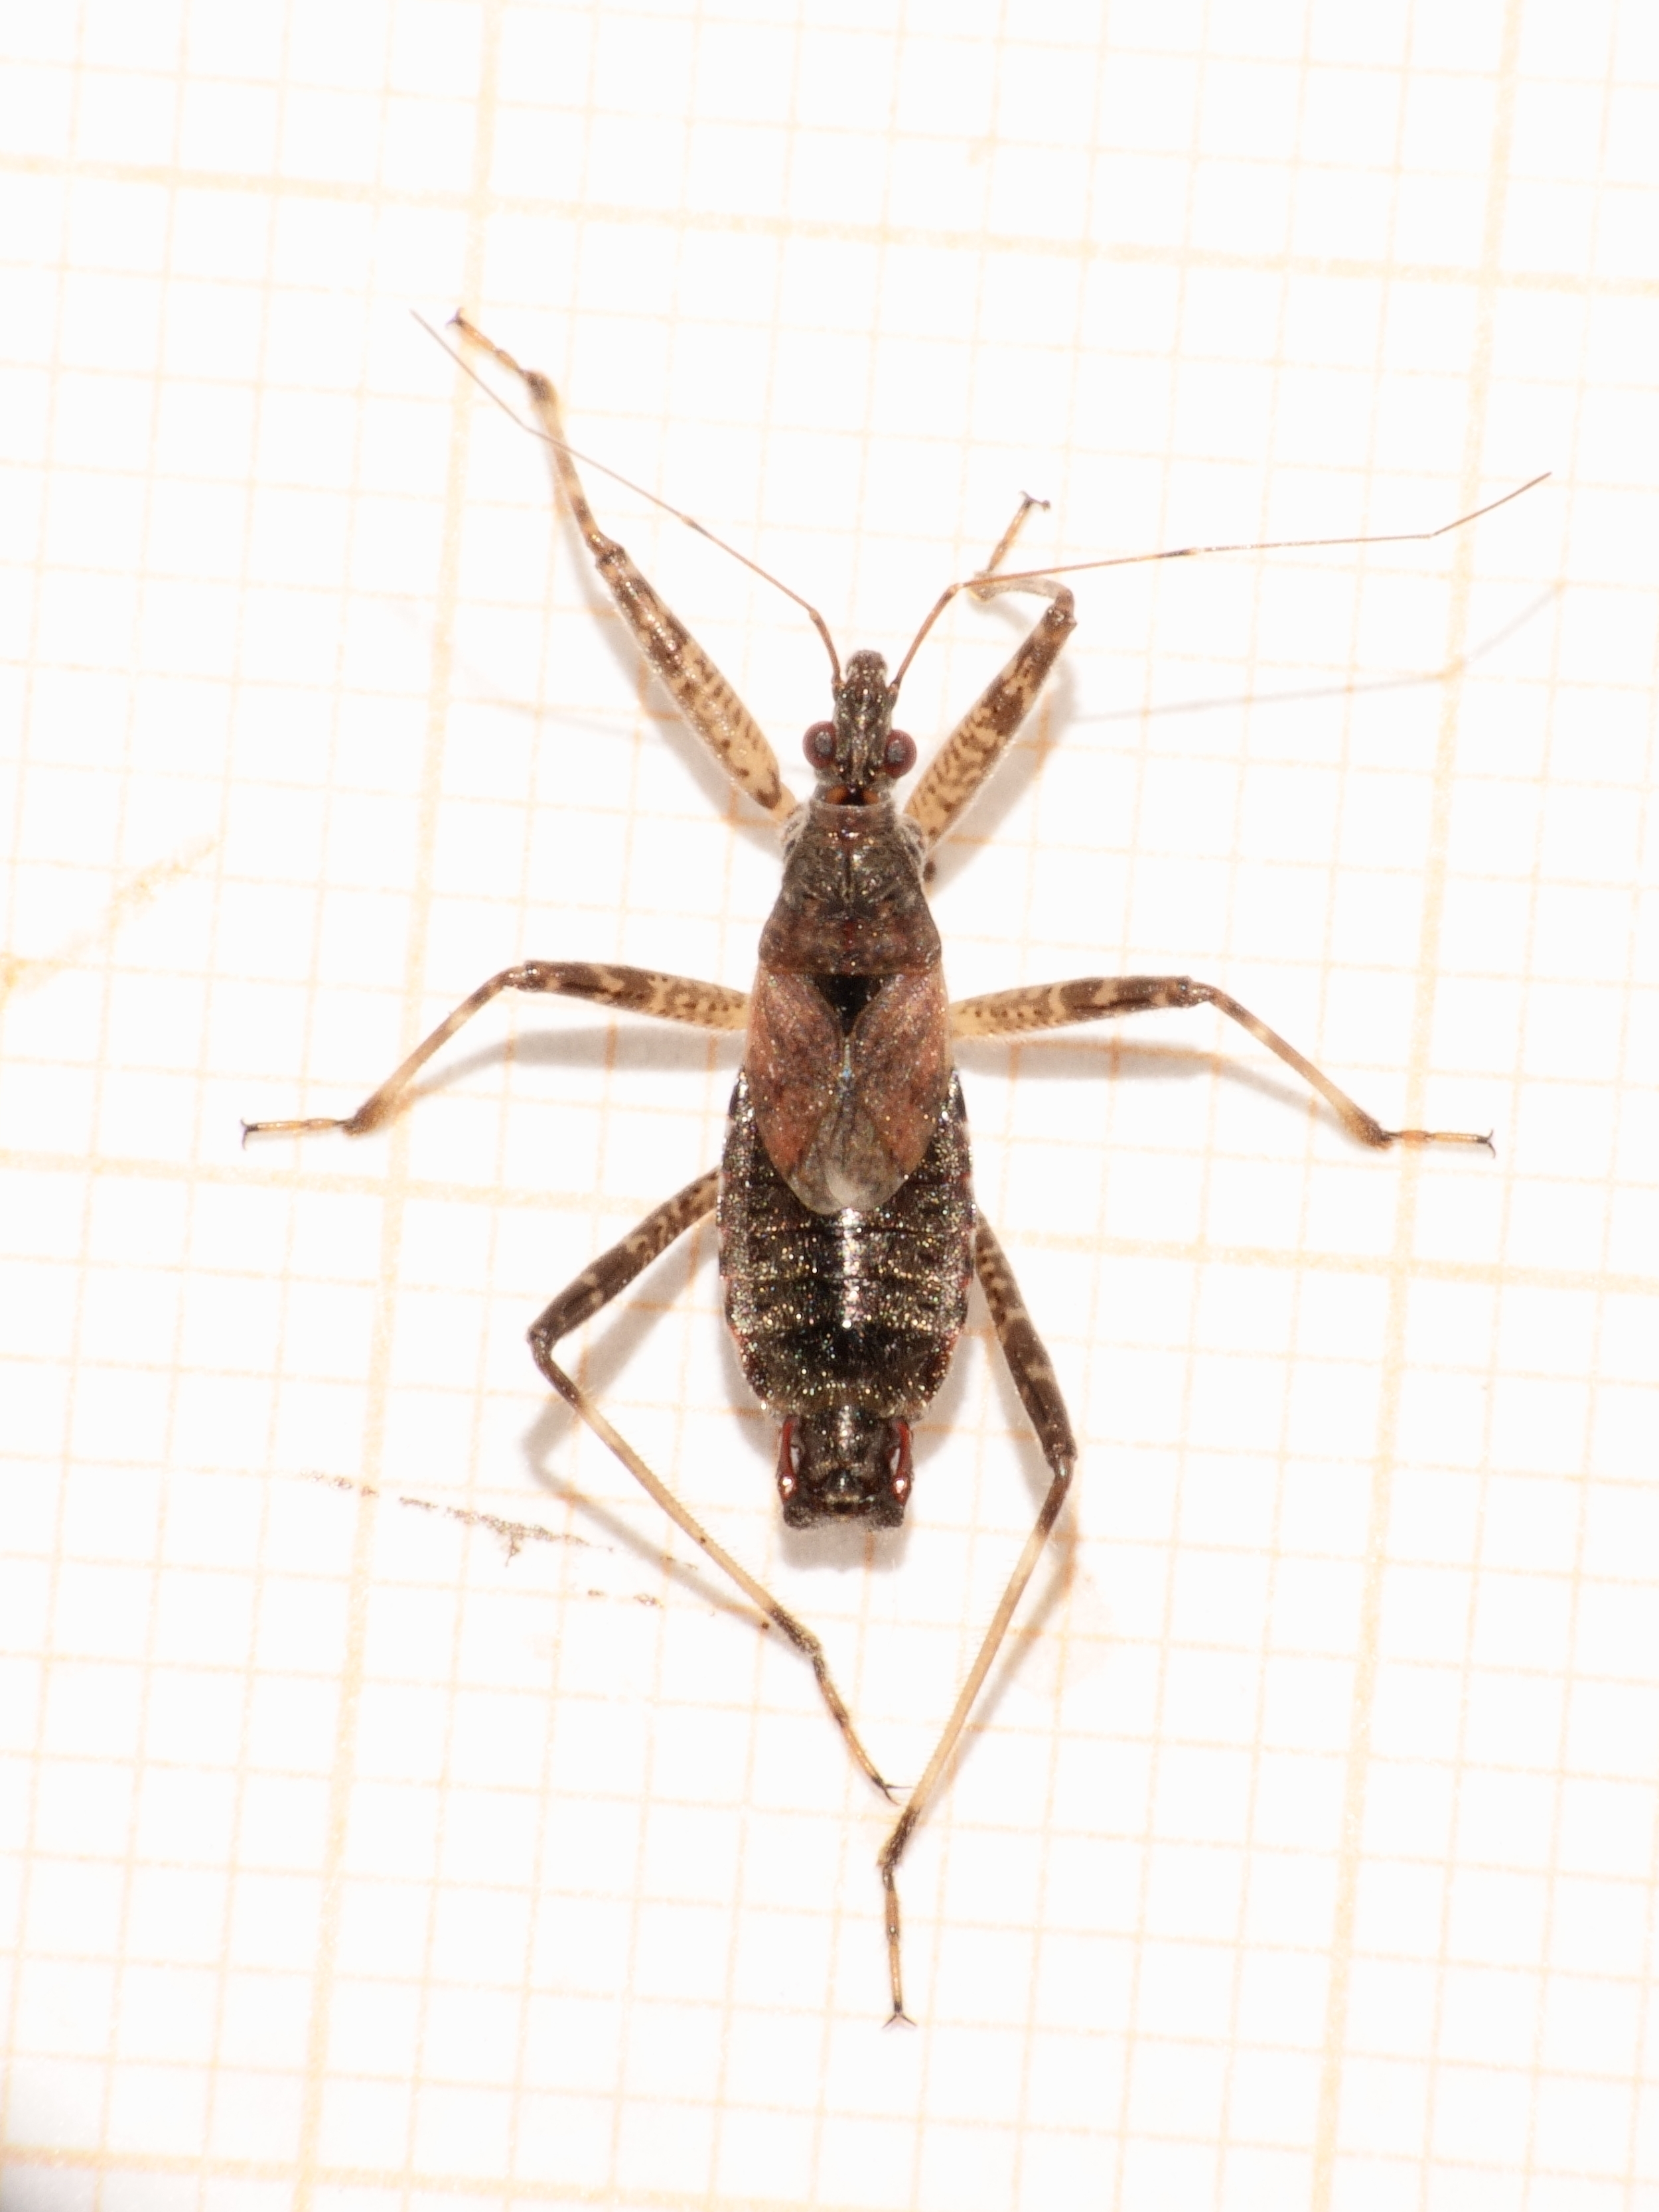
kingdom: Animalia
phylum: Arthropoda
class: Insecta
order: Hemiptera
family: Nabidae
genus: Himacerus
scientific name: Himacerus apterus
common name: Tree damsel bug
